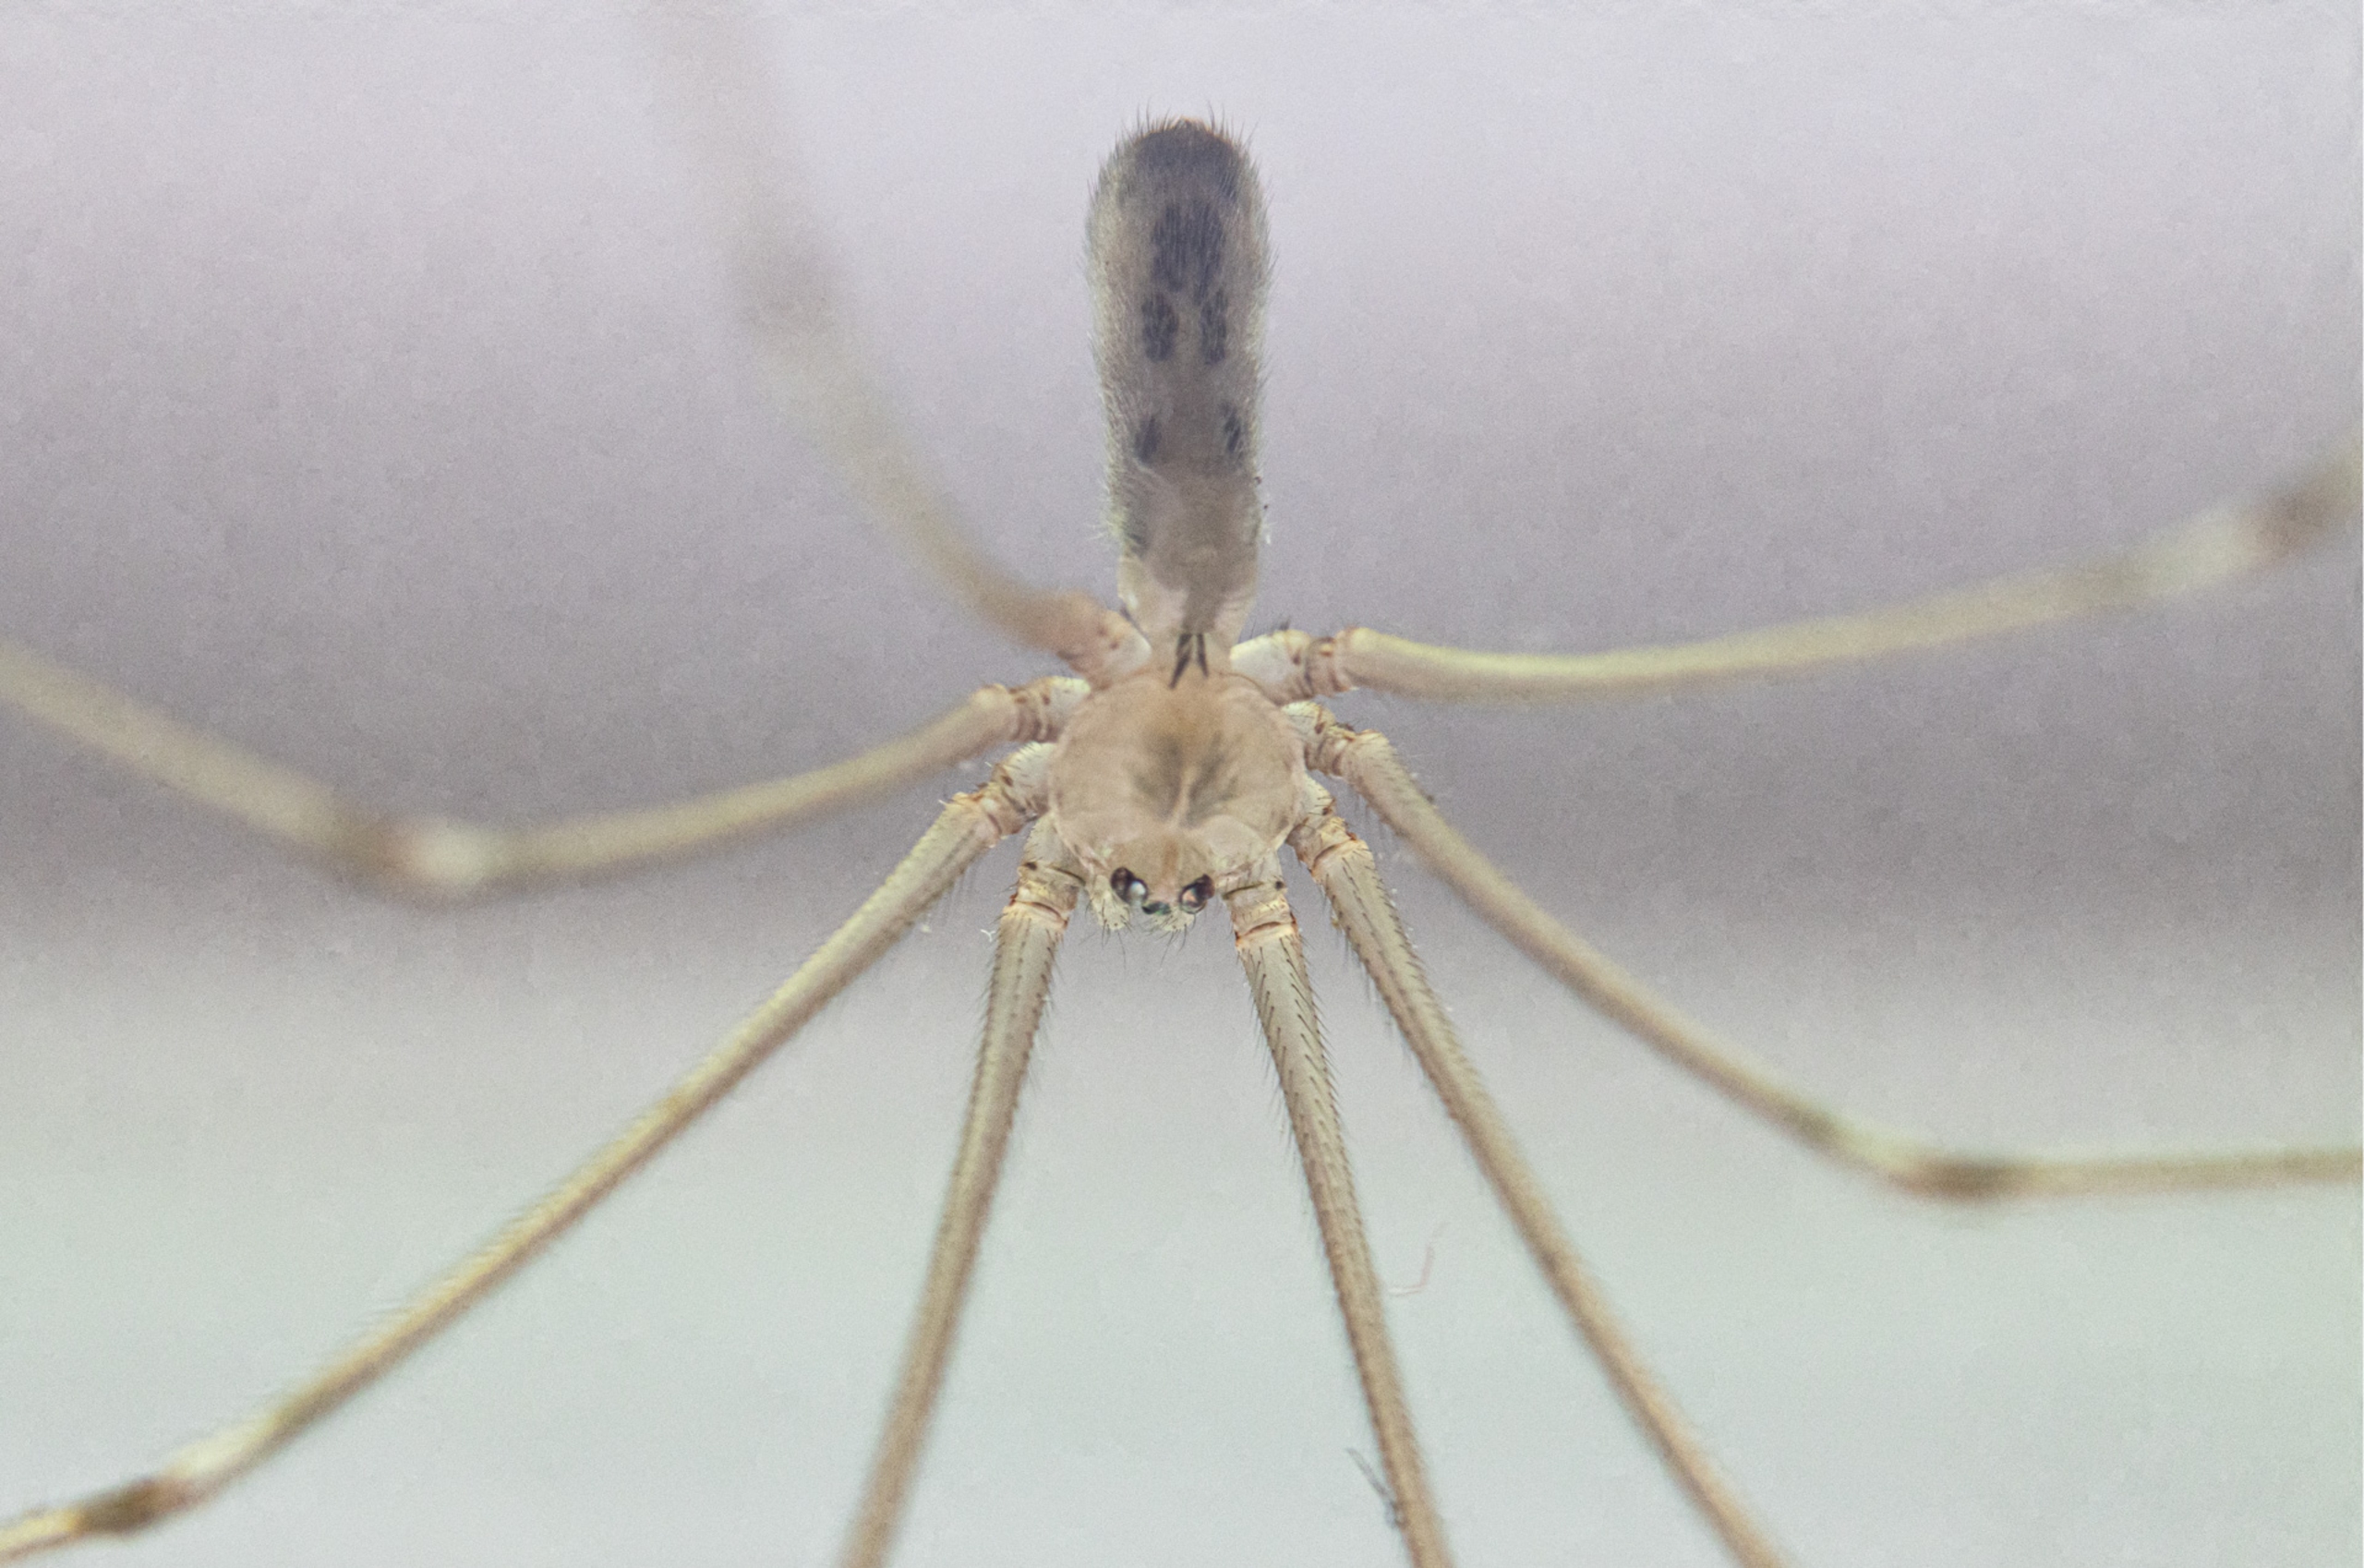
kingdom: Animalia
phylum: Arthropoda
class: Arachnida
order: Araneae
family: Pholcidae
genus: Pholcus
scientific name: Pholcus phalangioides
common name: Mejeredderkop
